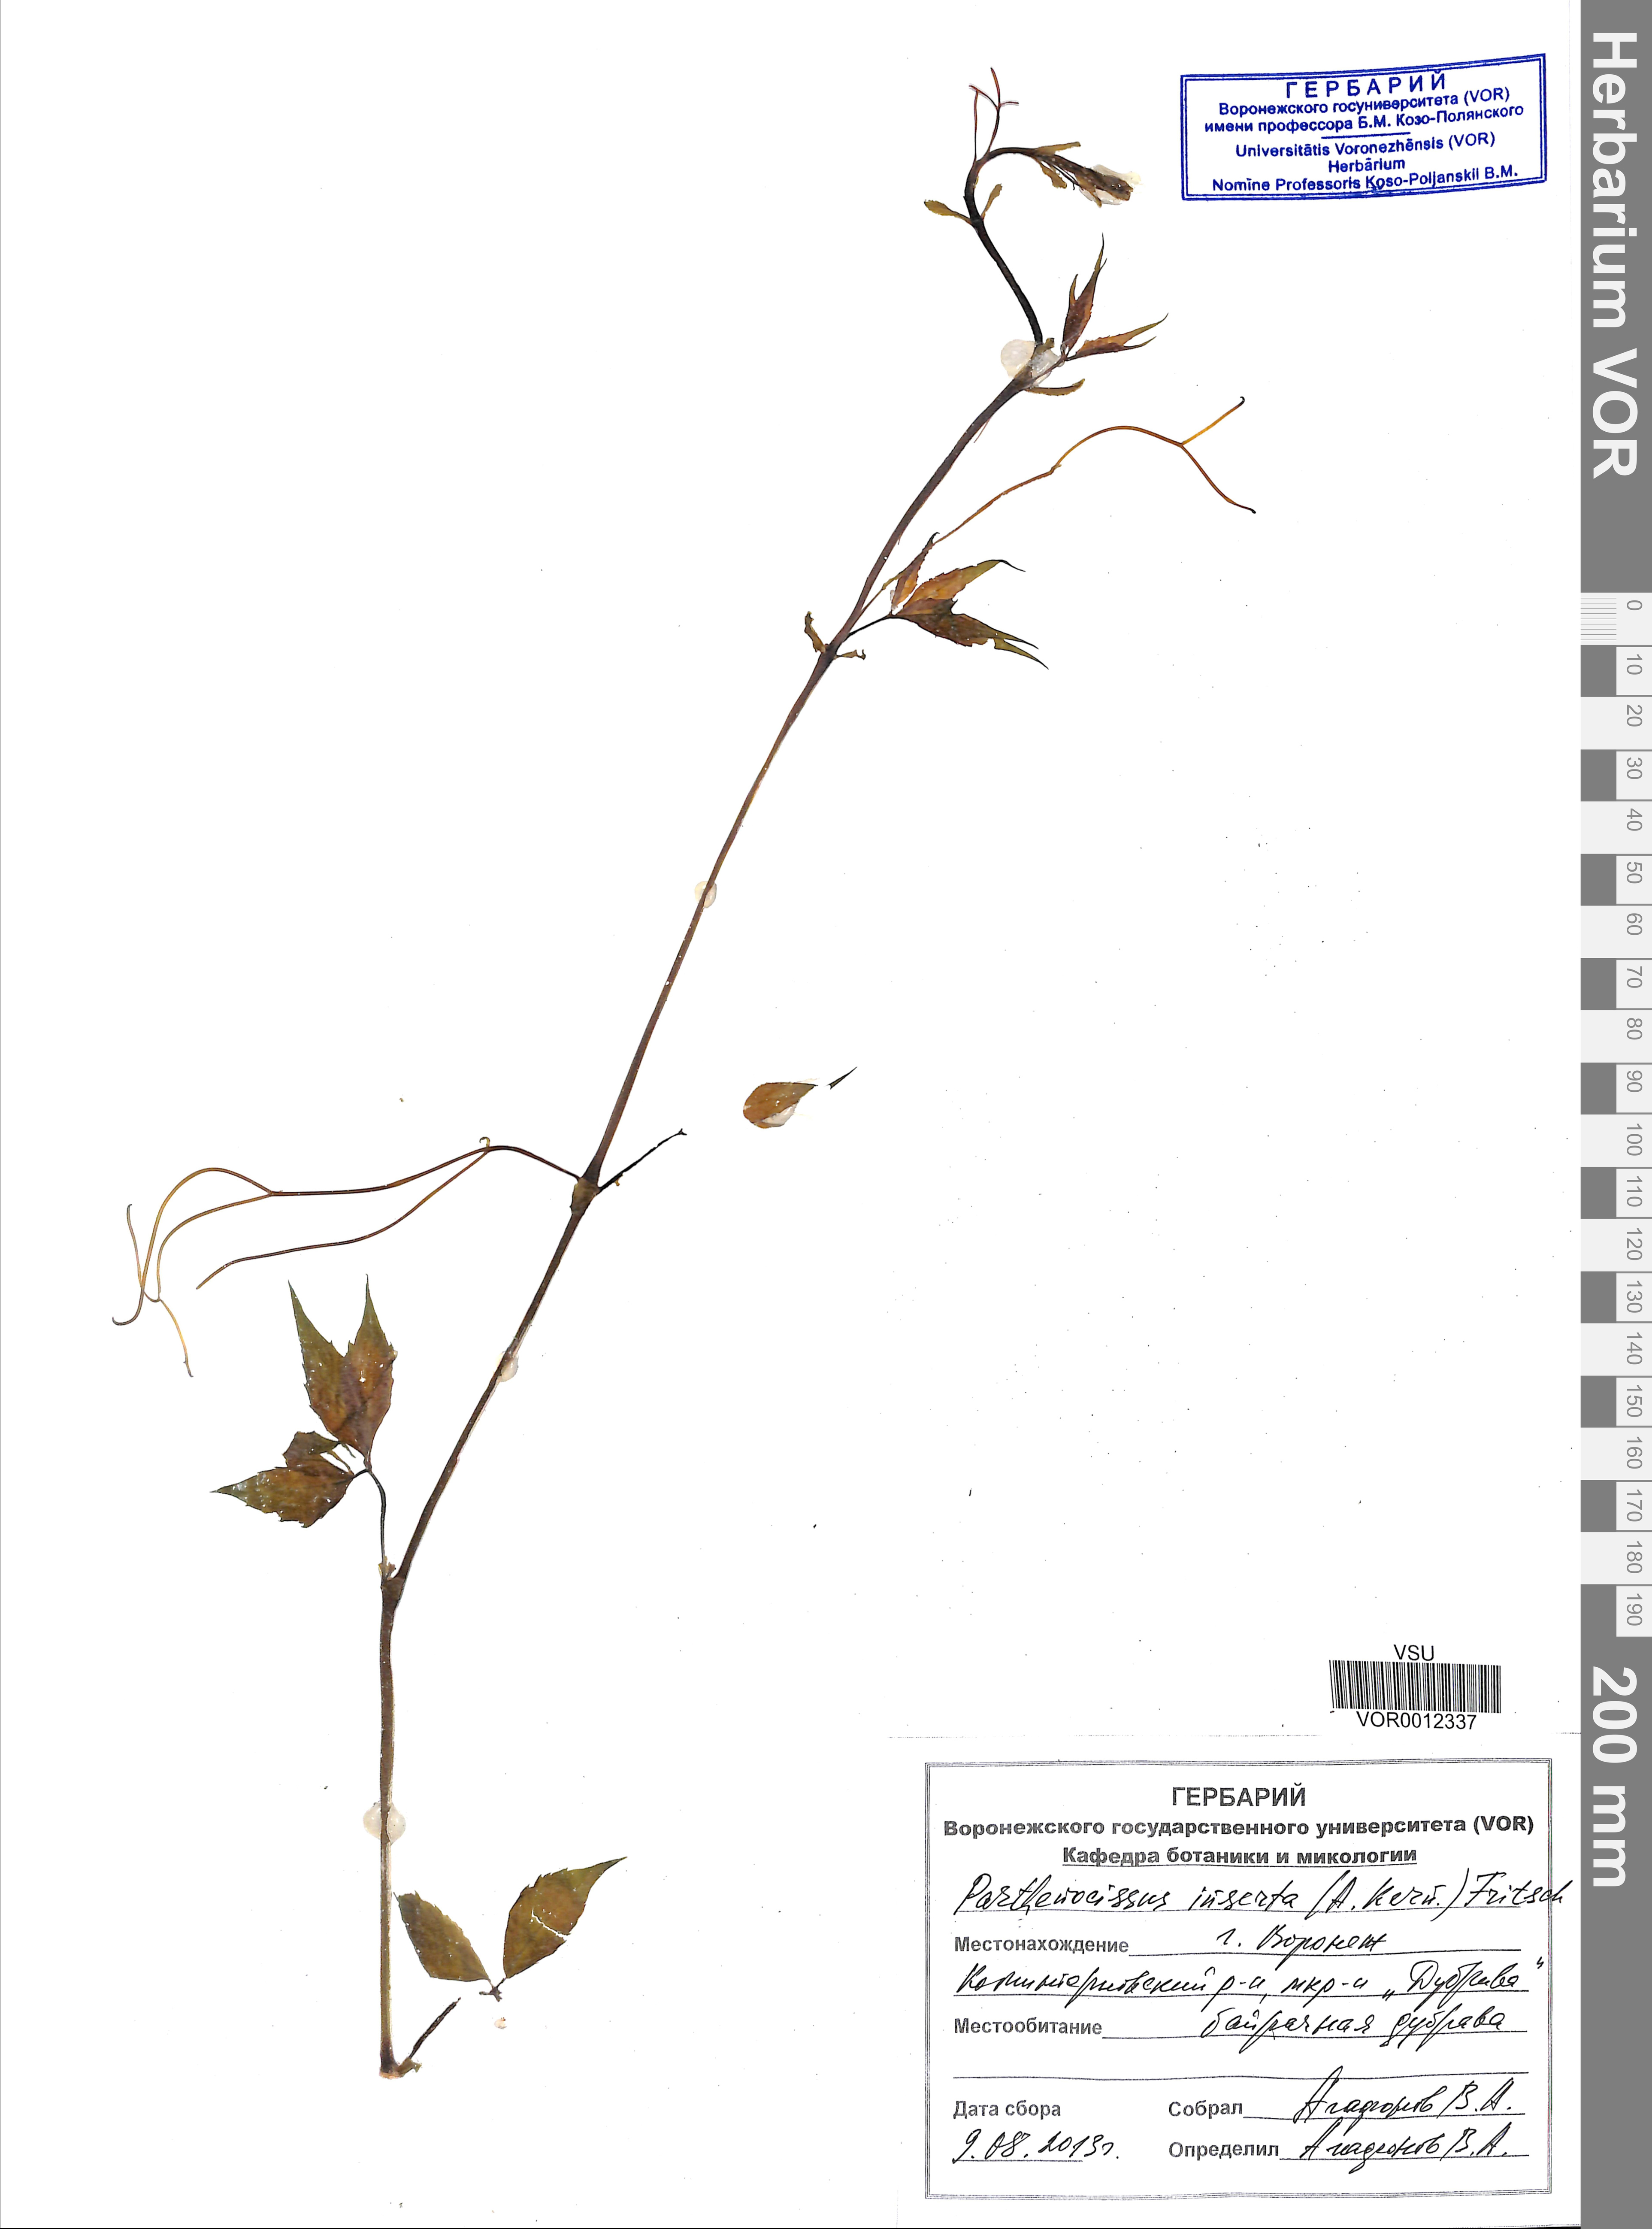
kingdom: Plantae
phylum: Tracheophyta
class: Magnoliopsida
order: Vitales
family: Vitaceae
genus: Parthenocissus
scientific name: Parthenocissus inserta
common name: False virginia-creeper
